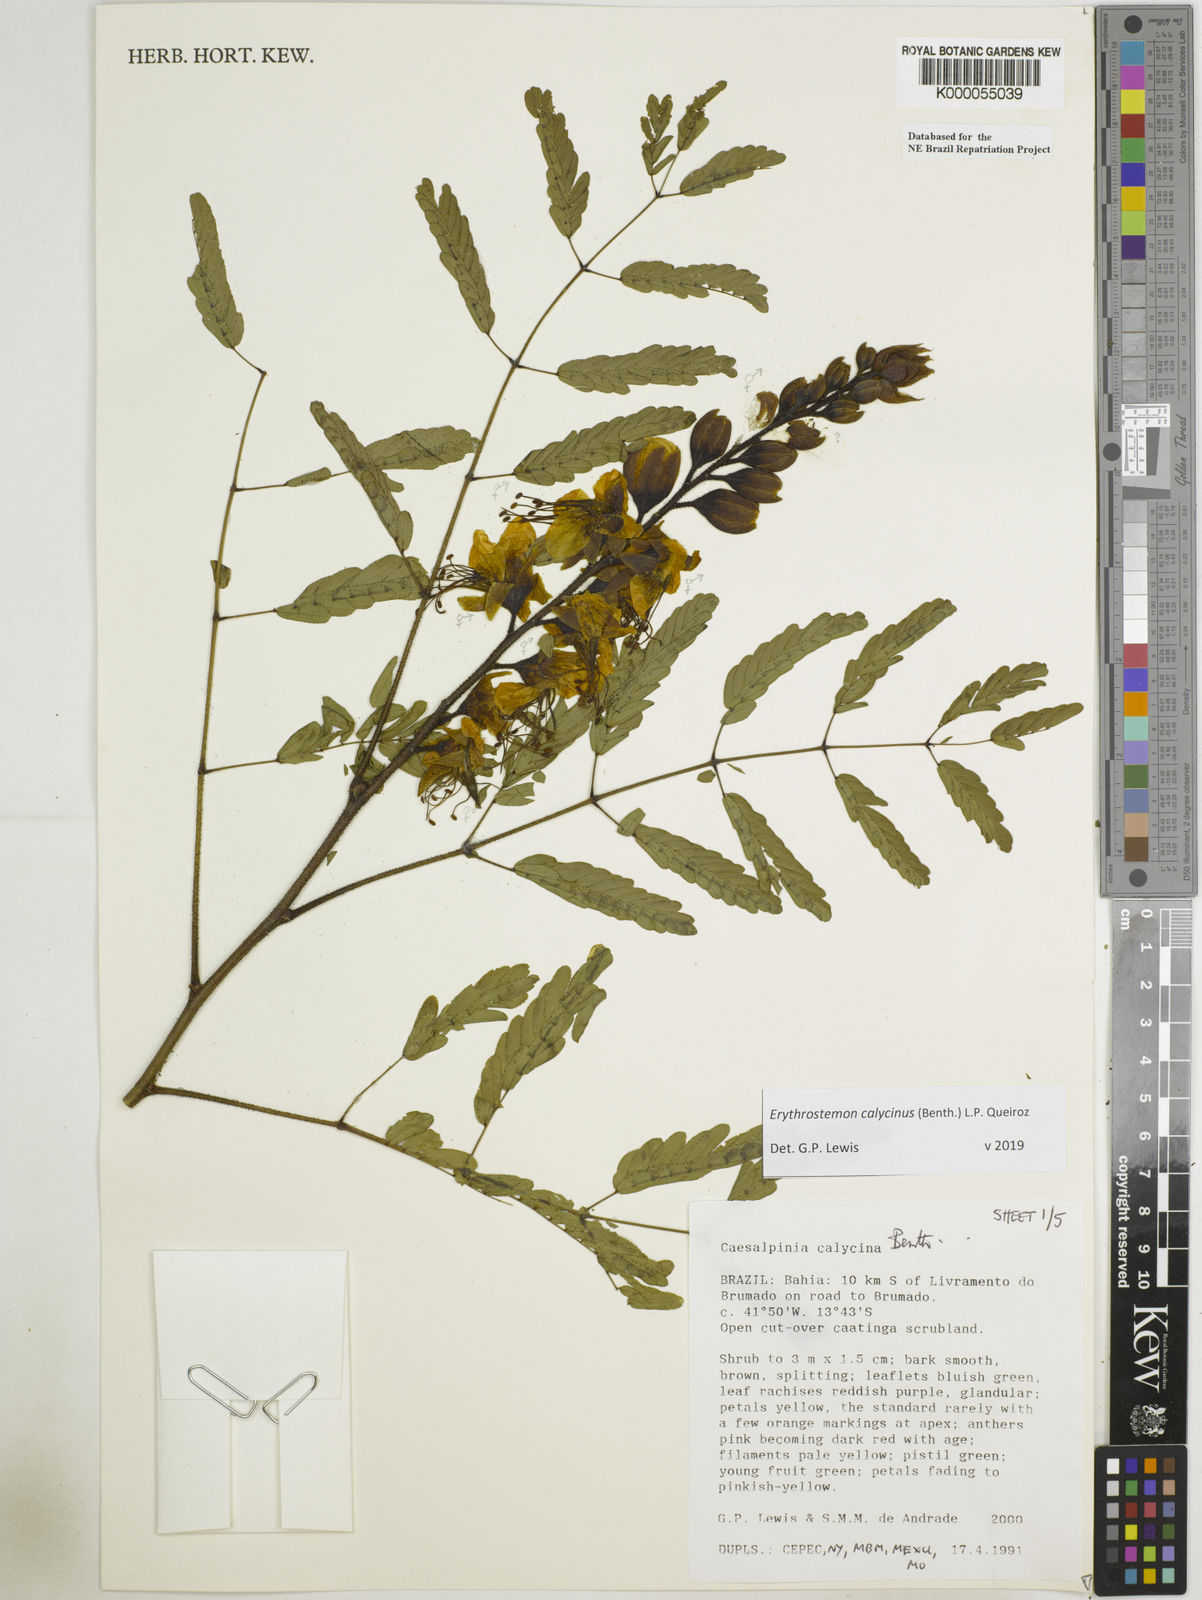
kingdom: Plantae
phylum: Tracheophyta
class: Magnoliopsida
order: Fabales
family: Fabaceae
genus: Erythrostemon
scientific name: Erythrostemon calycinus
